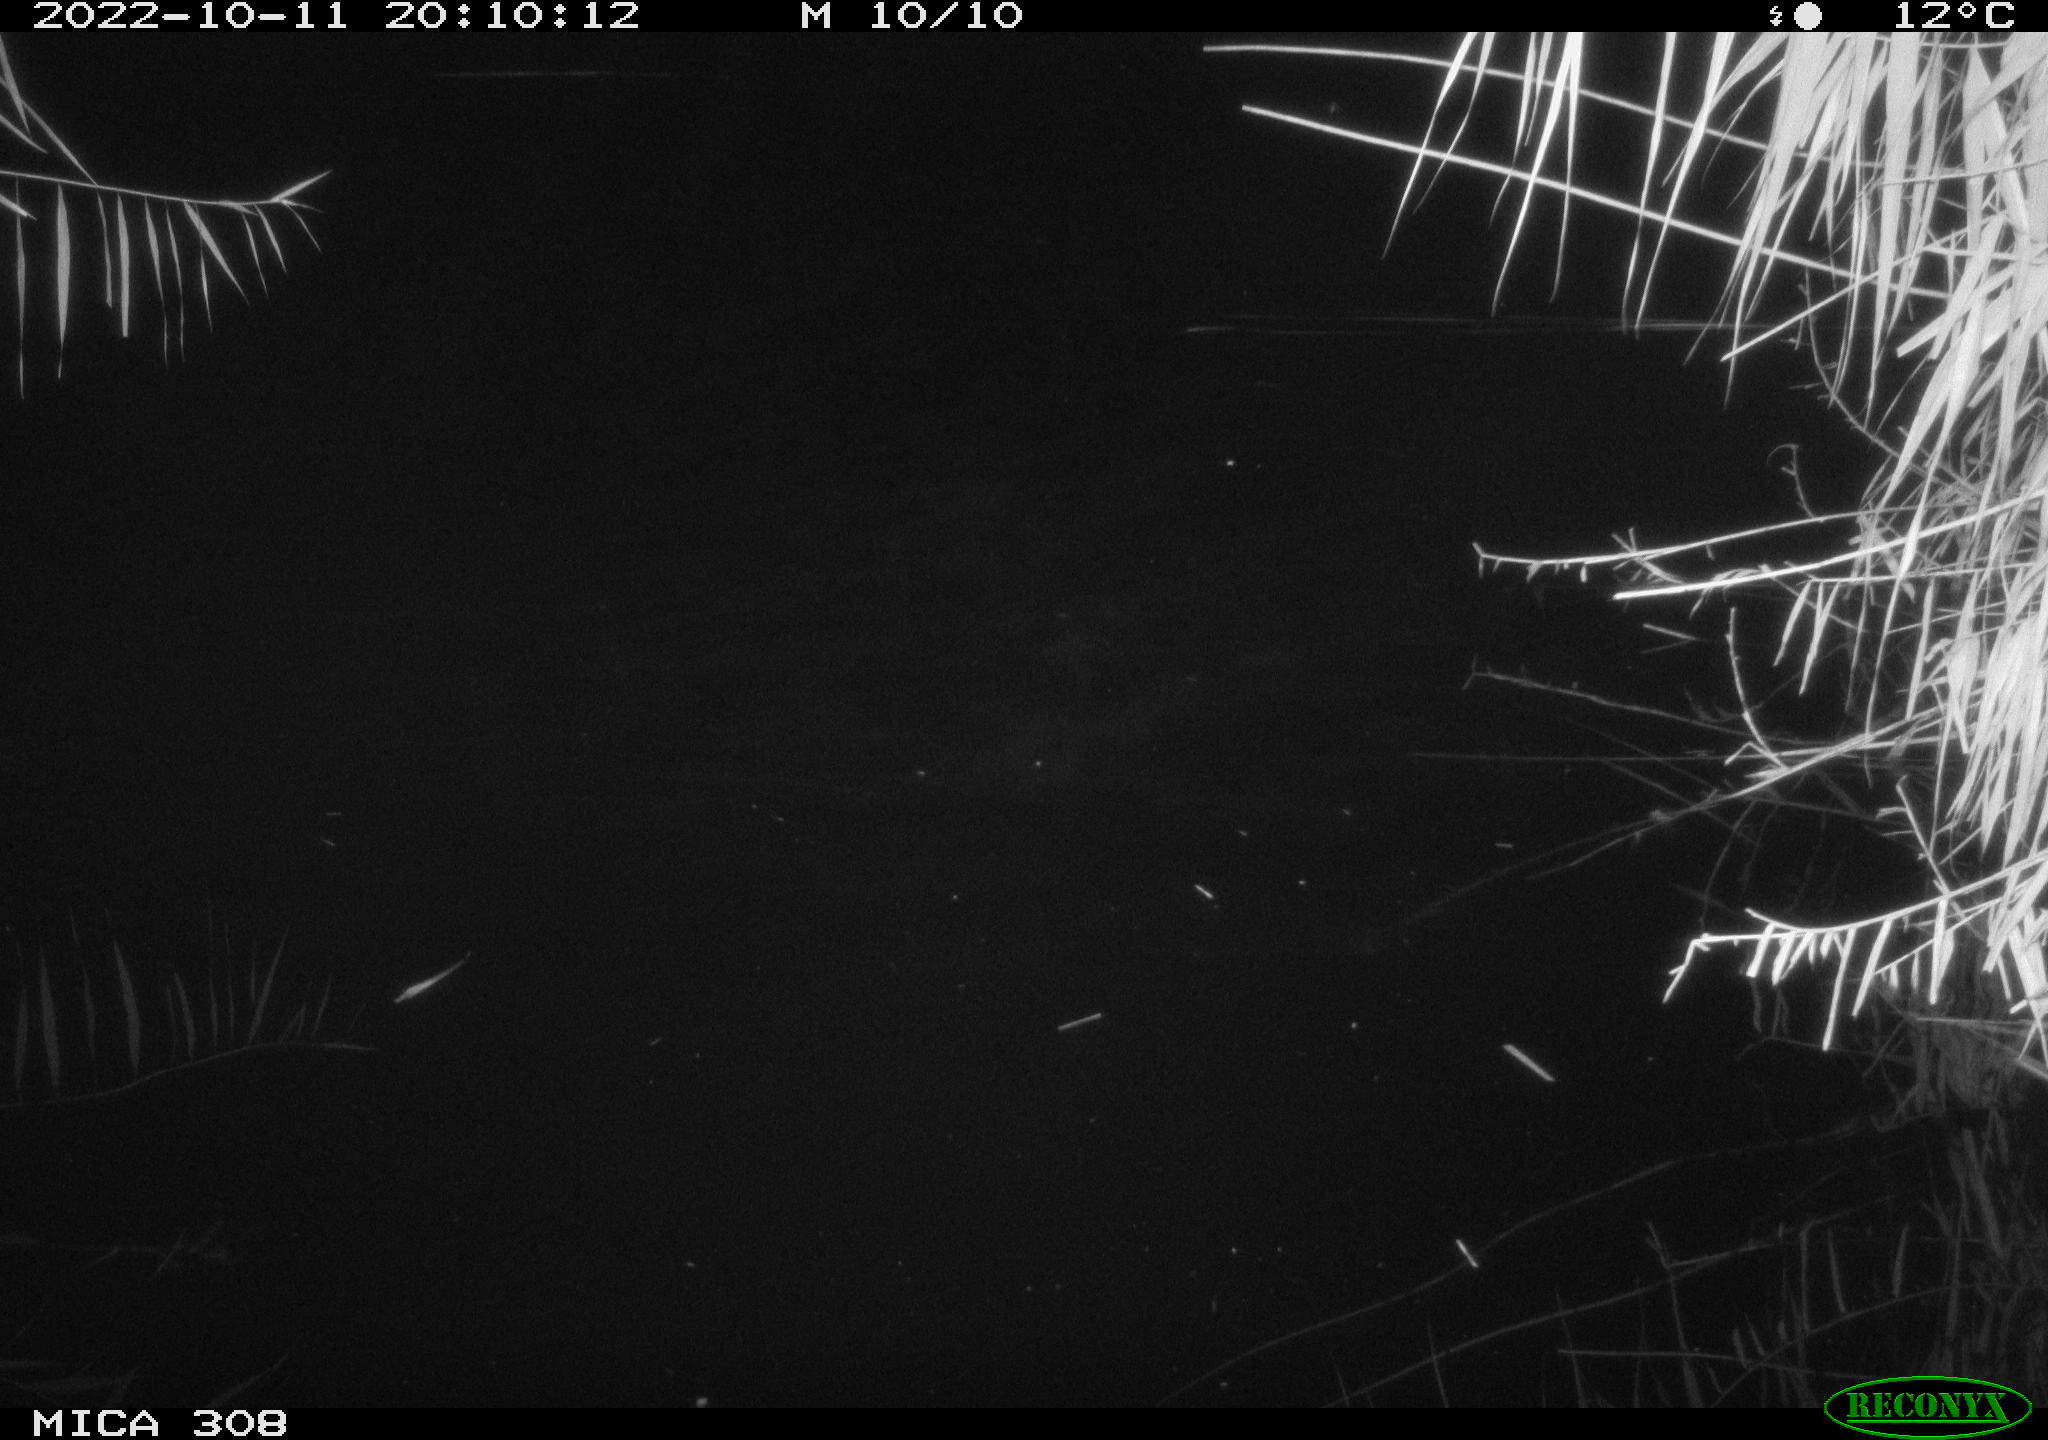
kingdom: Animalia
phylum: Chordata
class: Mammalia
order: Rodentia
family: Muridae
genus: Rattus
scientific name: Rattus norvegicus
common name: Brown rat
